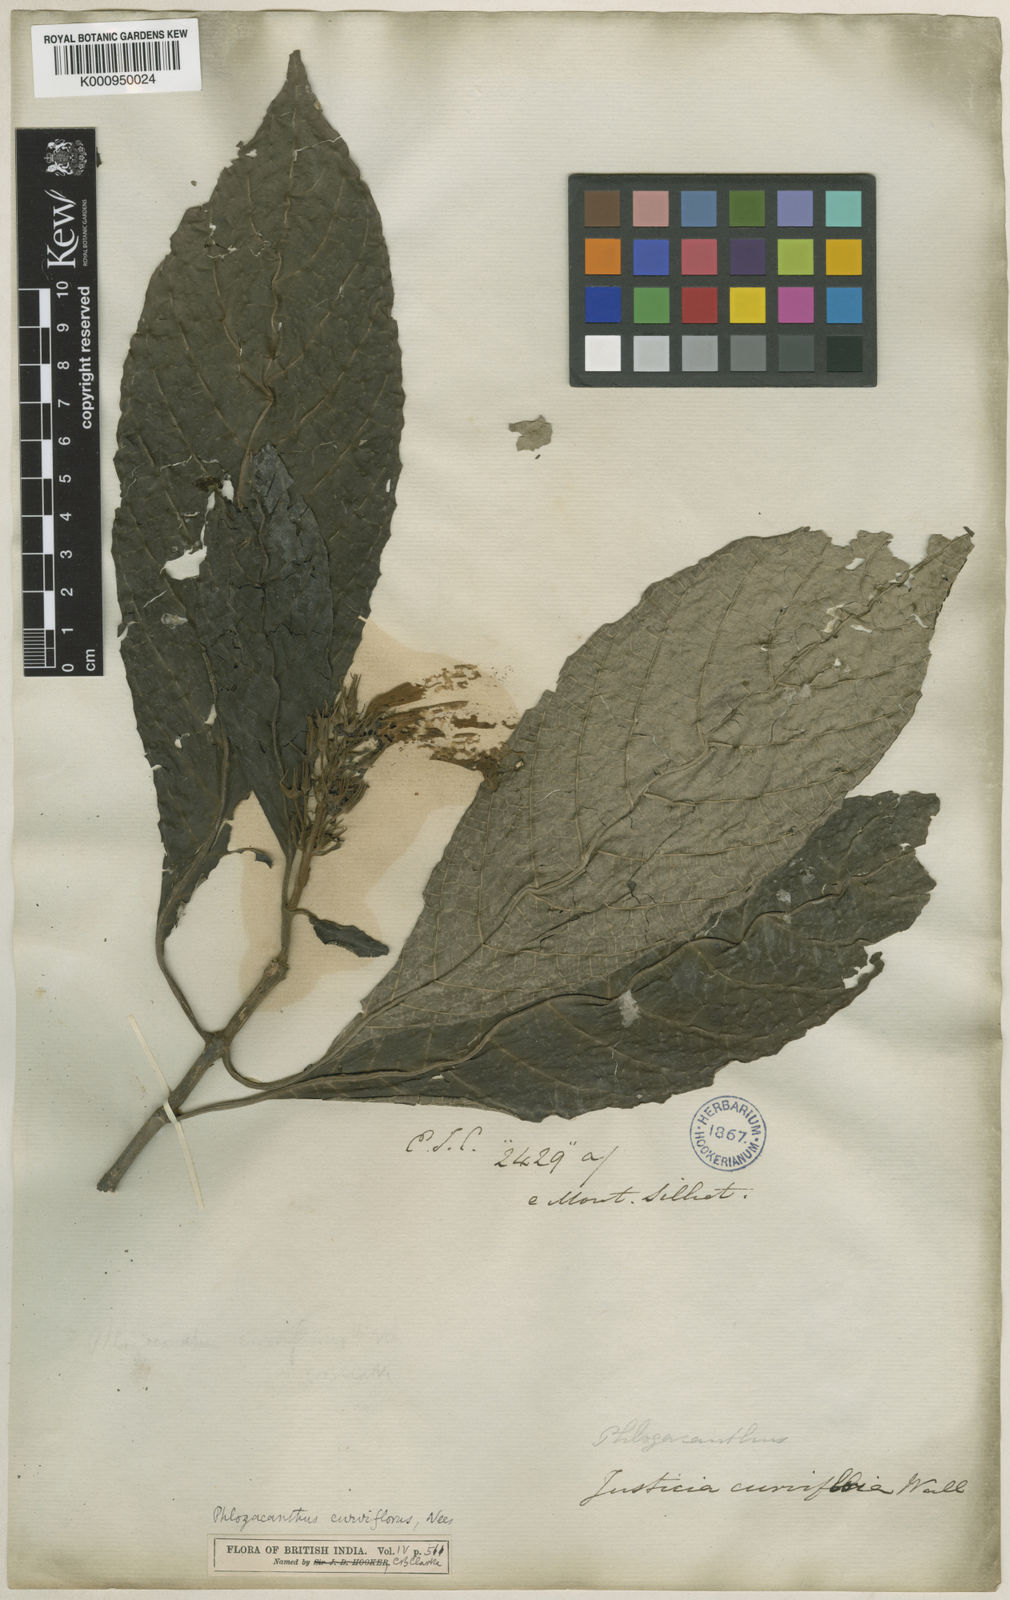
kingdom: Plantae
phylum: Tracheophyta
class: Magnoliopsida
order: Lamiales
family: Acanthaceae
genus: Phlogacanthus
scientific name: Phlogacanthus curviflorus
